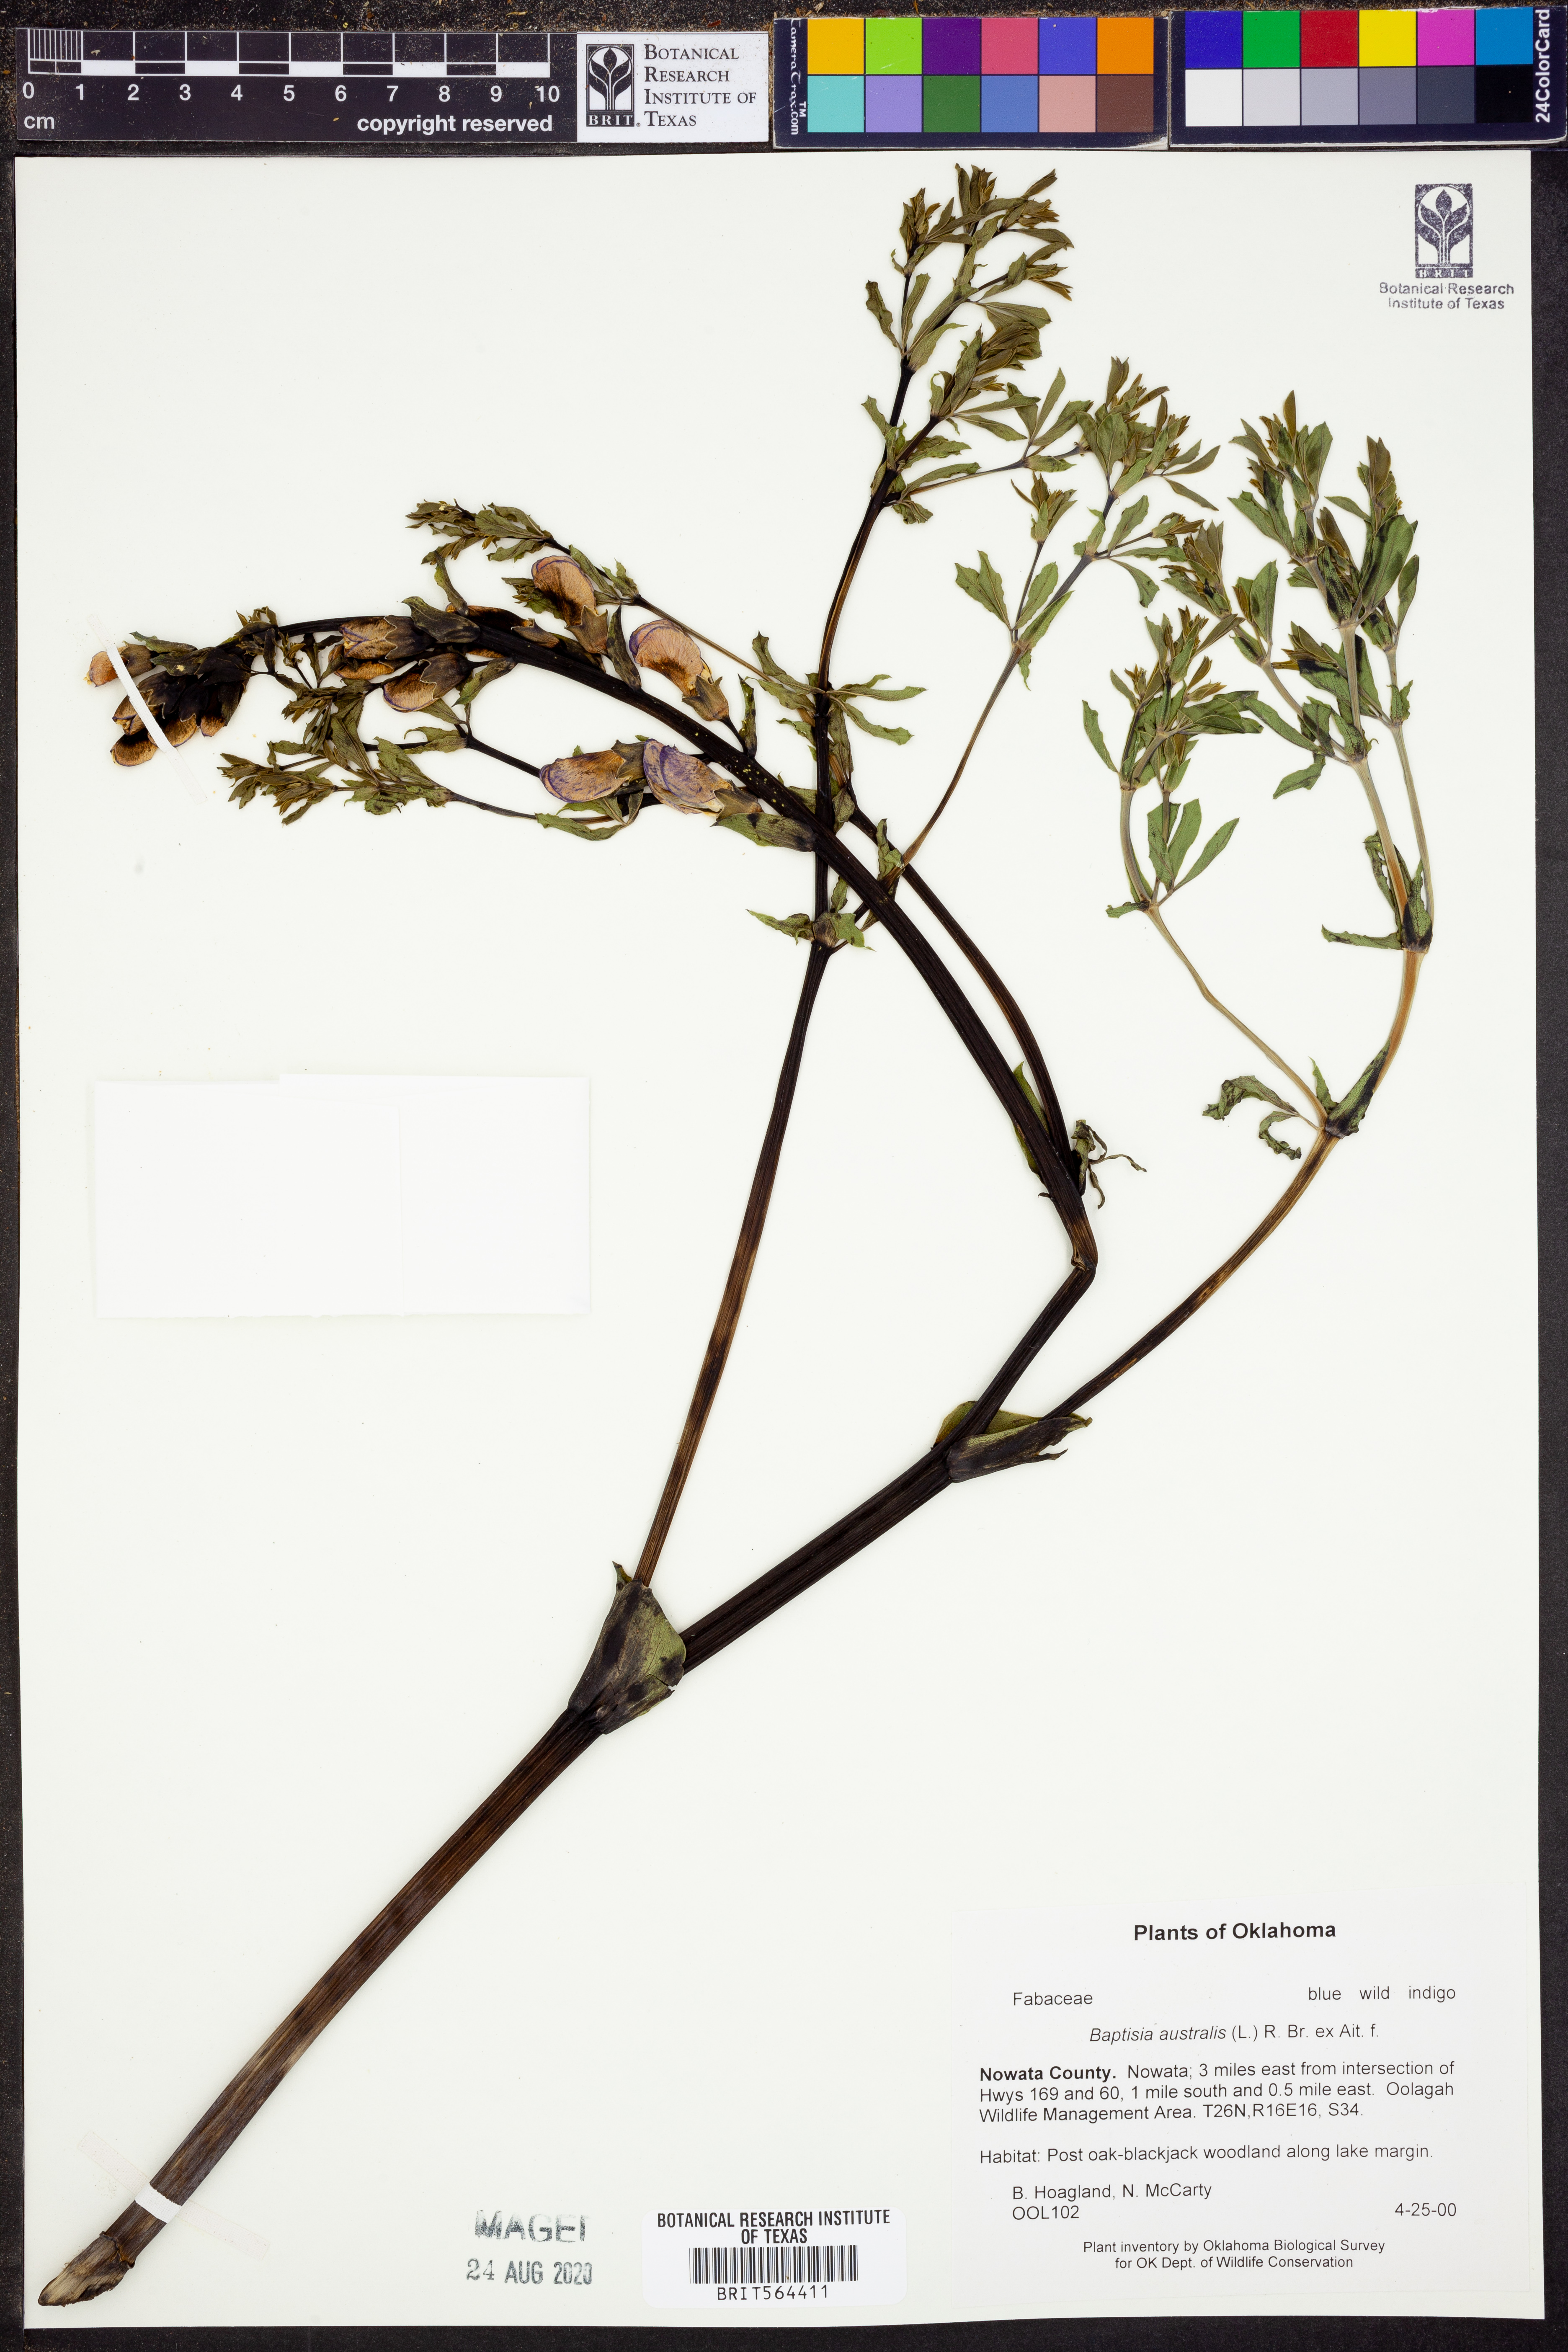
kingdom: Plantae
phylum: Tracheophyta
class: Magnoliopsida
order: Fabales
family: Fabaceae
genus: Baptisia
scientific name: Baptisia australis
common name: Blue false indigo
